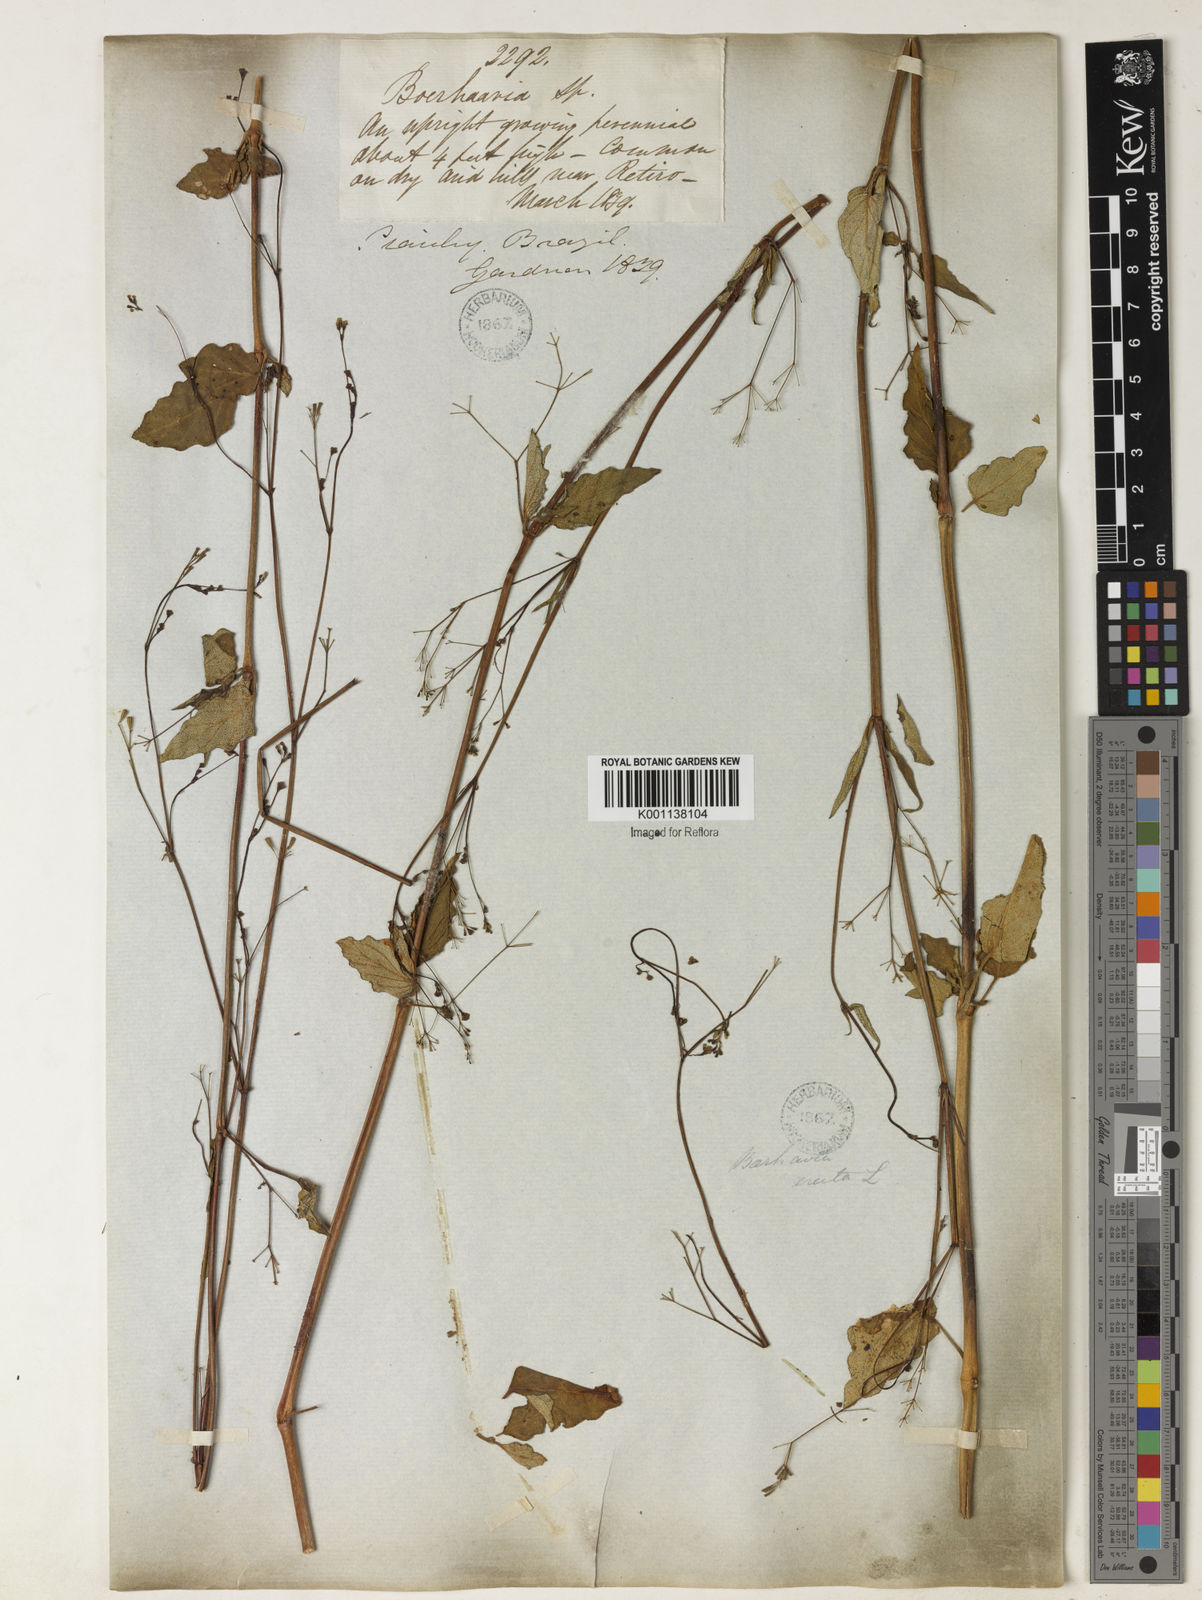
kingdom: Plantae
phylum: Tracheophyta
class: Magnoliopsida
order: Caryophyllales
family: Nyctaginaceae
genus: Boerhavia
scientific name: Boerhavia erecta
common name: Erect spiderling
